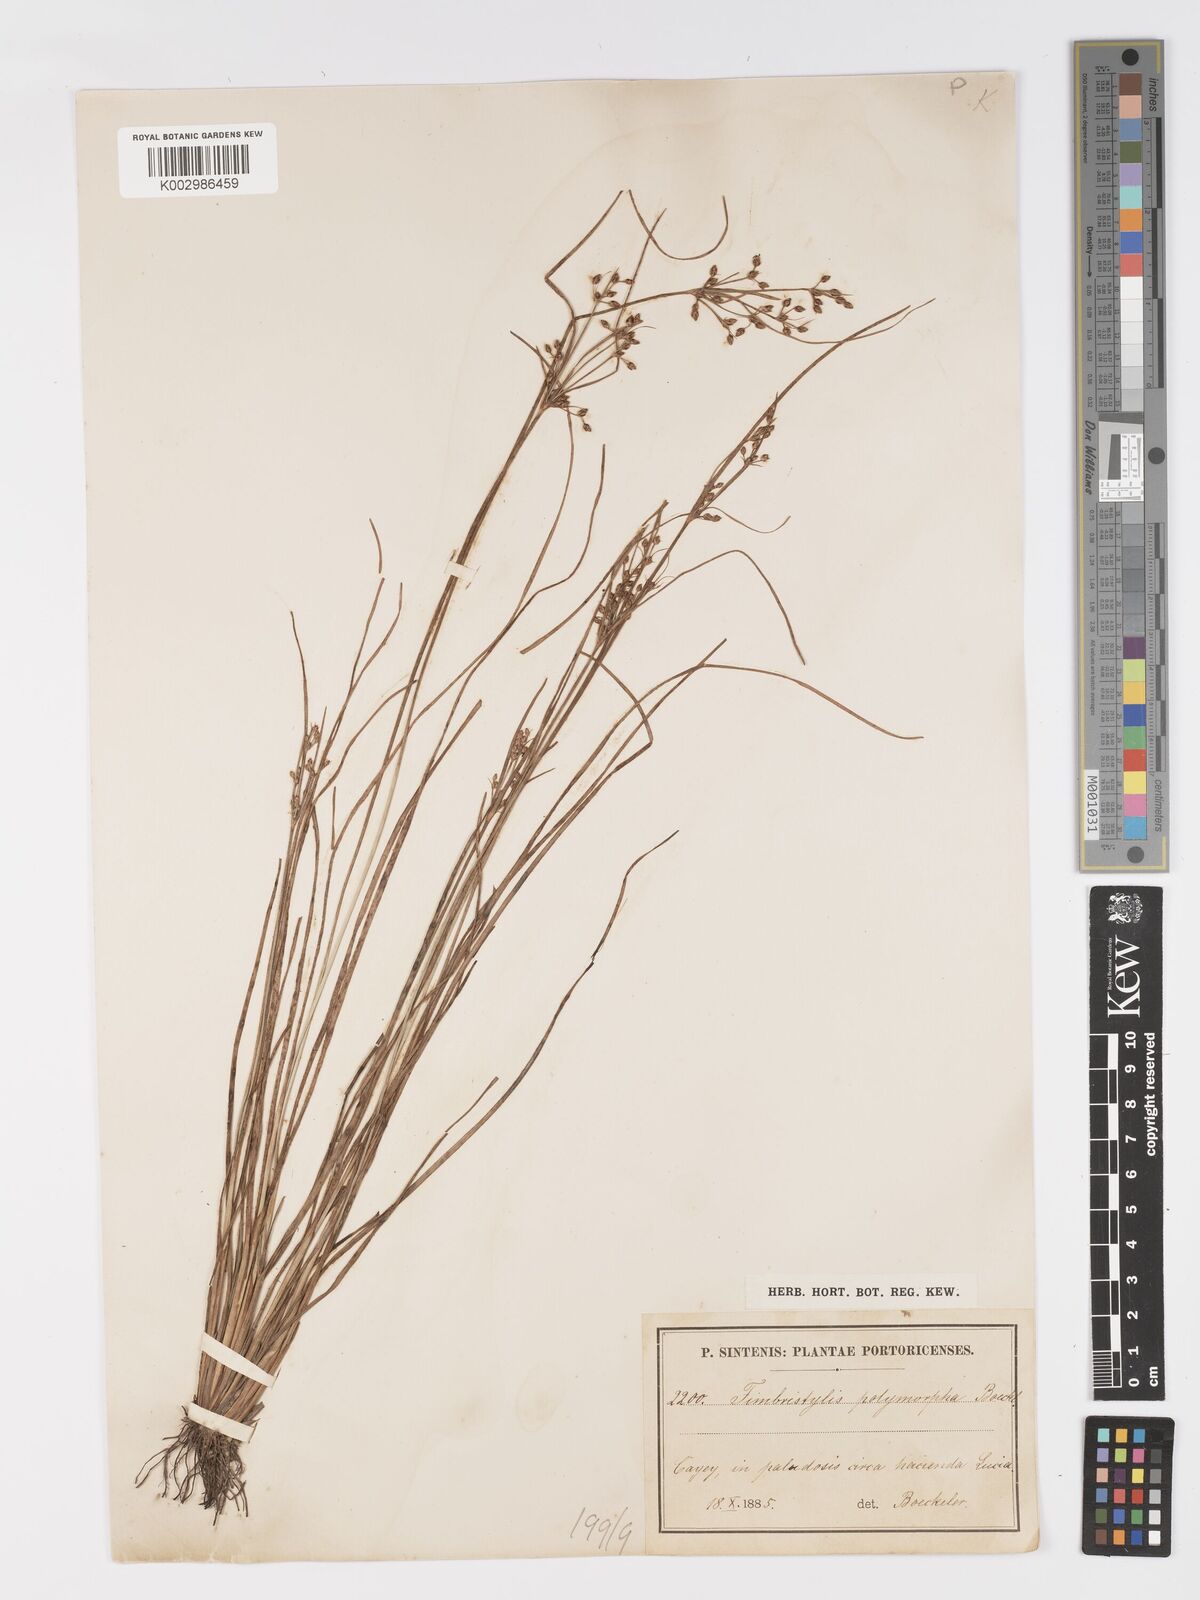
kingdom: Plantae
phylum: Tracheophyta
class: Liliopsida
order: Poales
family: Cyperaceae
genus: Fimbristylis
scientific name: Fimbristylis dichotoma
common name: Forked fimbry
